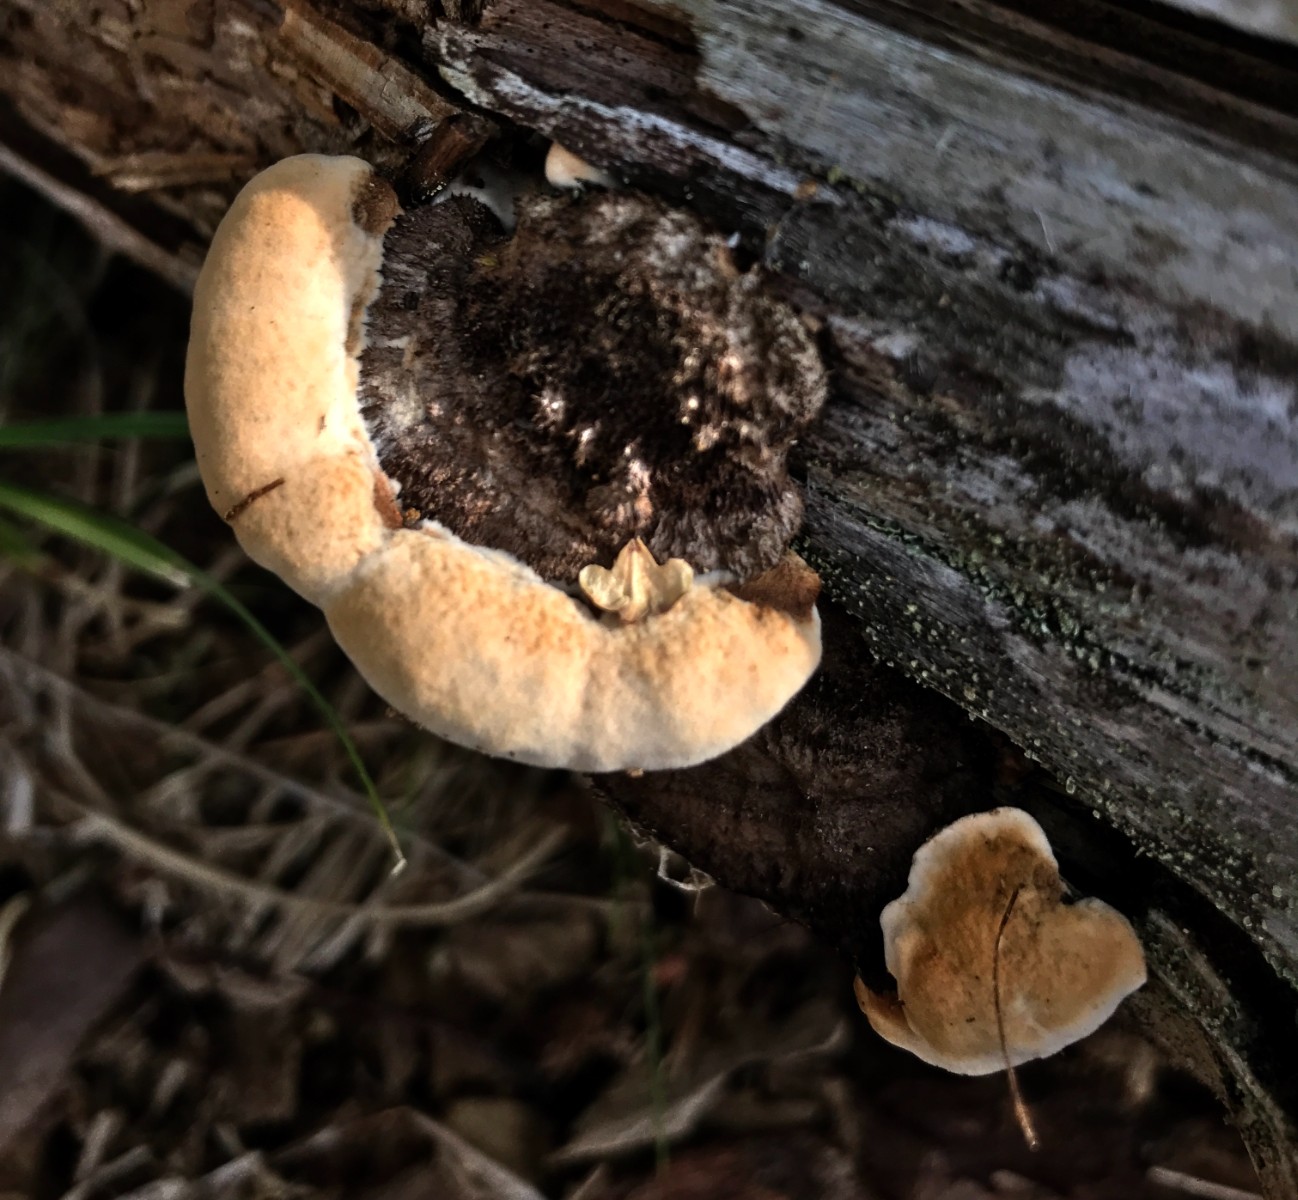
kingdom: Fungi
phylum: Basidiomycota
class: Agaricomycetes
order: Gloeophyllales
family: Gloeophyllaceae
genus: Gloeophyllum
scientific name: Gloeophyllum sepiarium
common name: fyrre-korkhat
